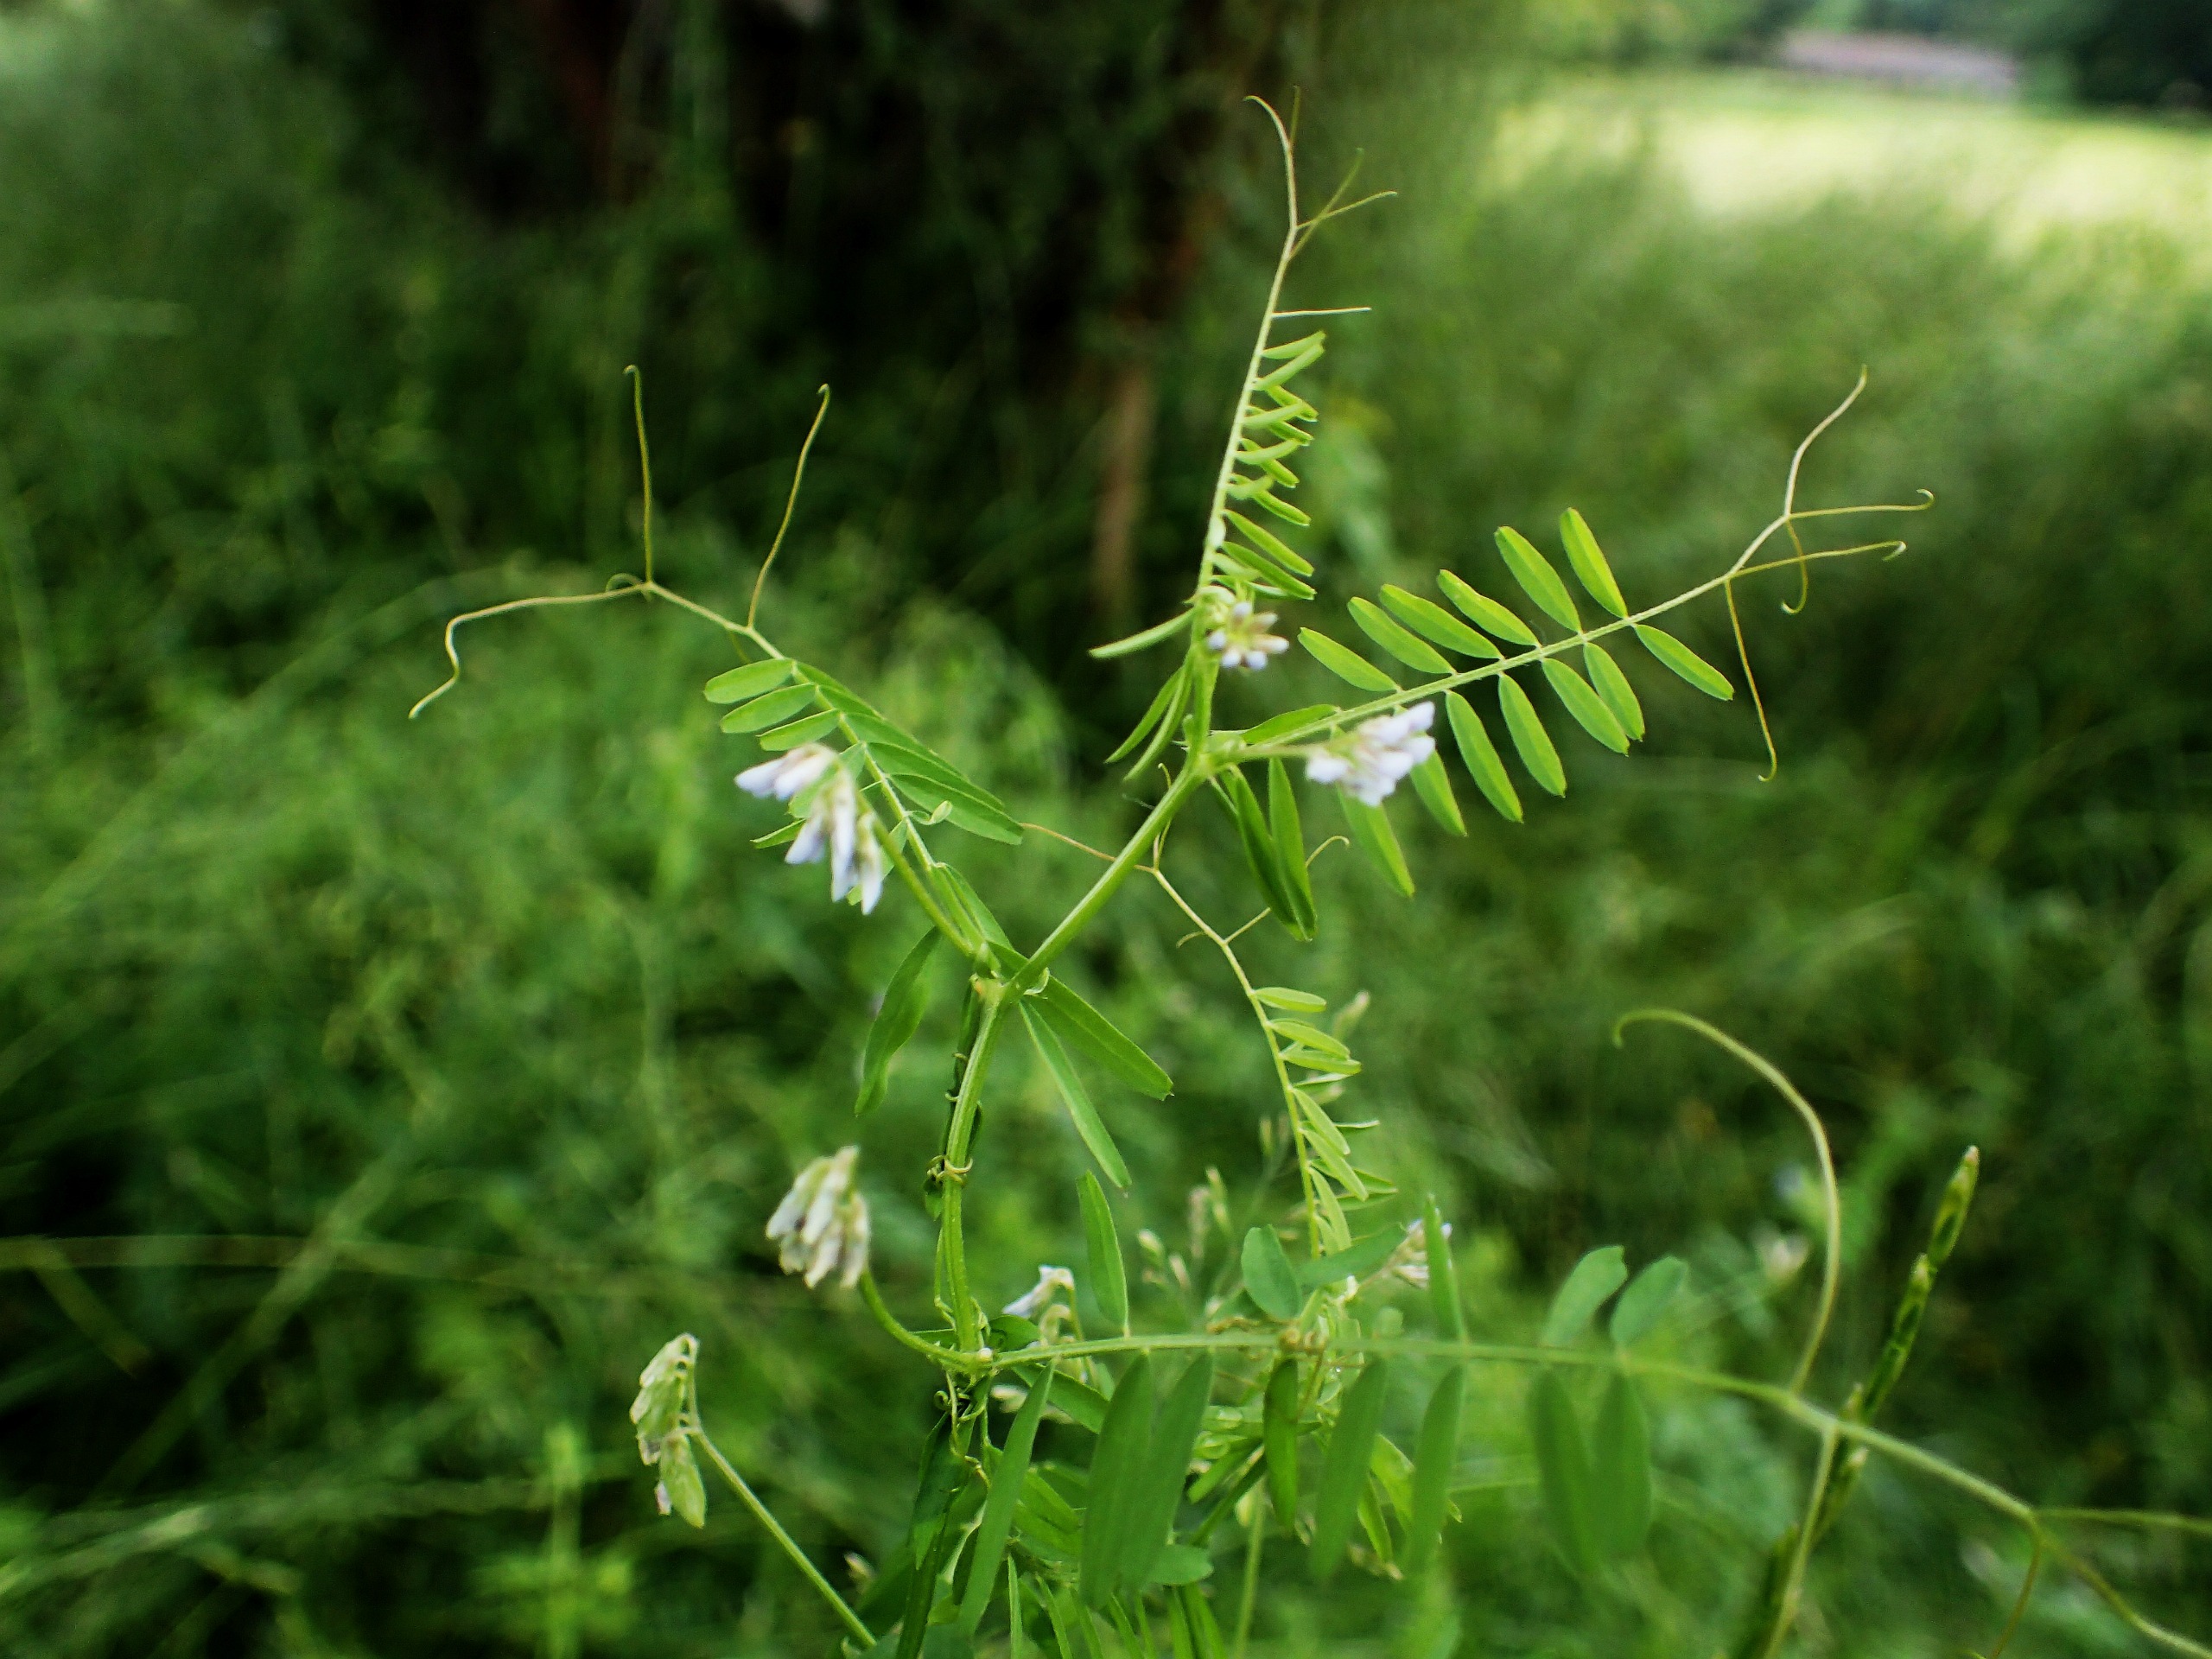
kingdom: Plantae
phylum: Tracheophyta
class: Magnoliopsida
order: Fabales
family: Fabaceae
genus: Vicia
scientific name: Vicia hirsuta
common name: Tofrøet vikke
